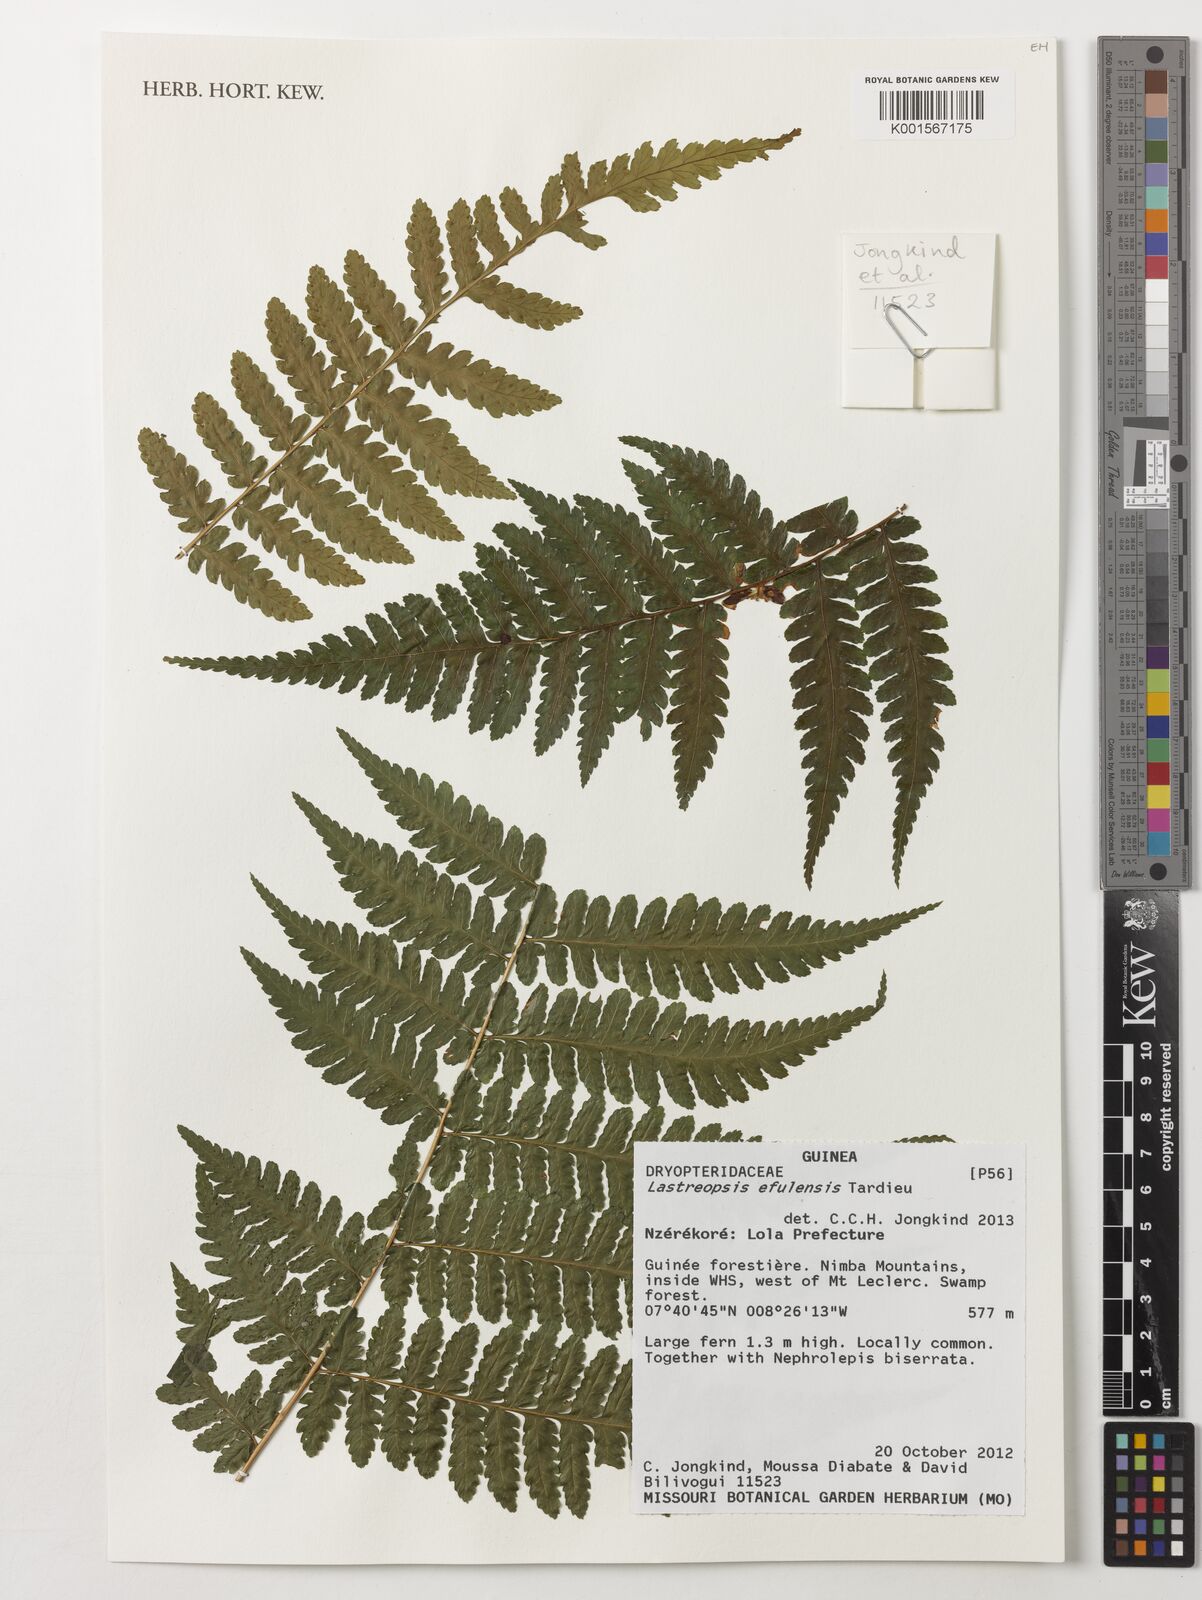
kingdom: Plantae
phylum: Tracheophyta
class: Polypodiopsida
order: Polypodiales
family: Dryopteridaceae
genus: Parapolystichum
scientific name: Parapolystichum currorii
